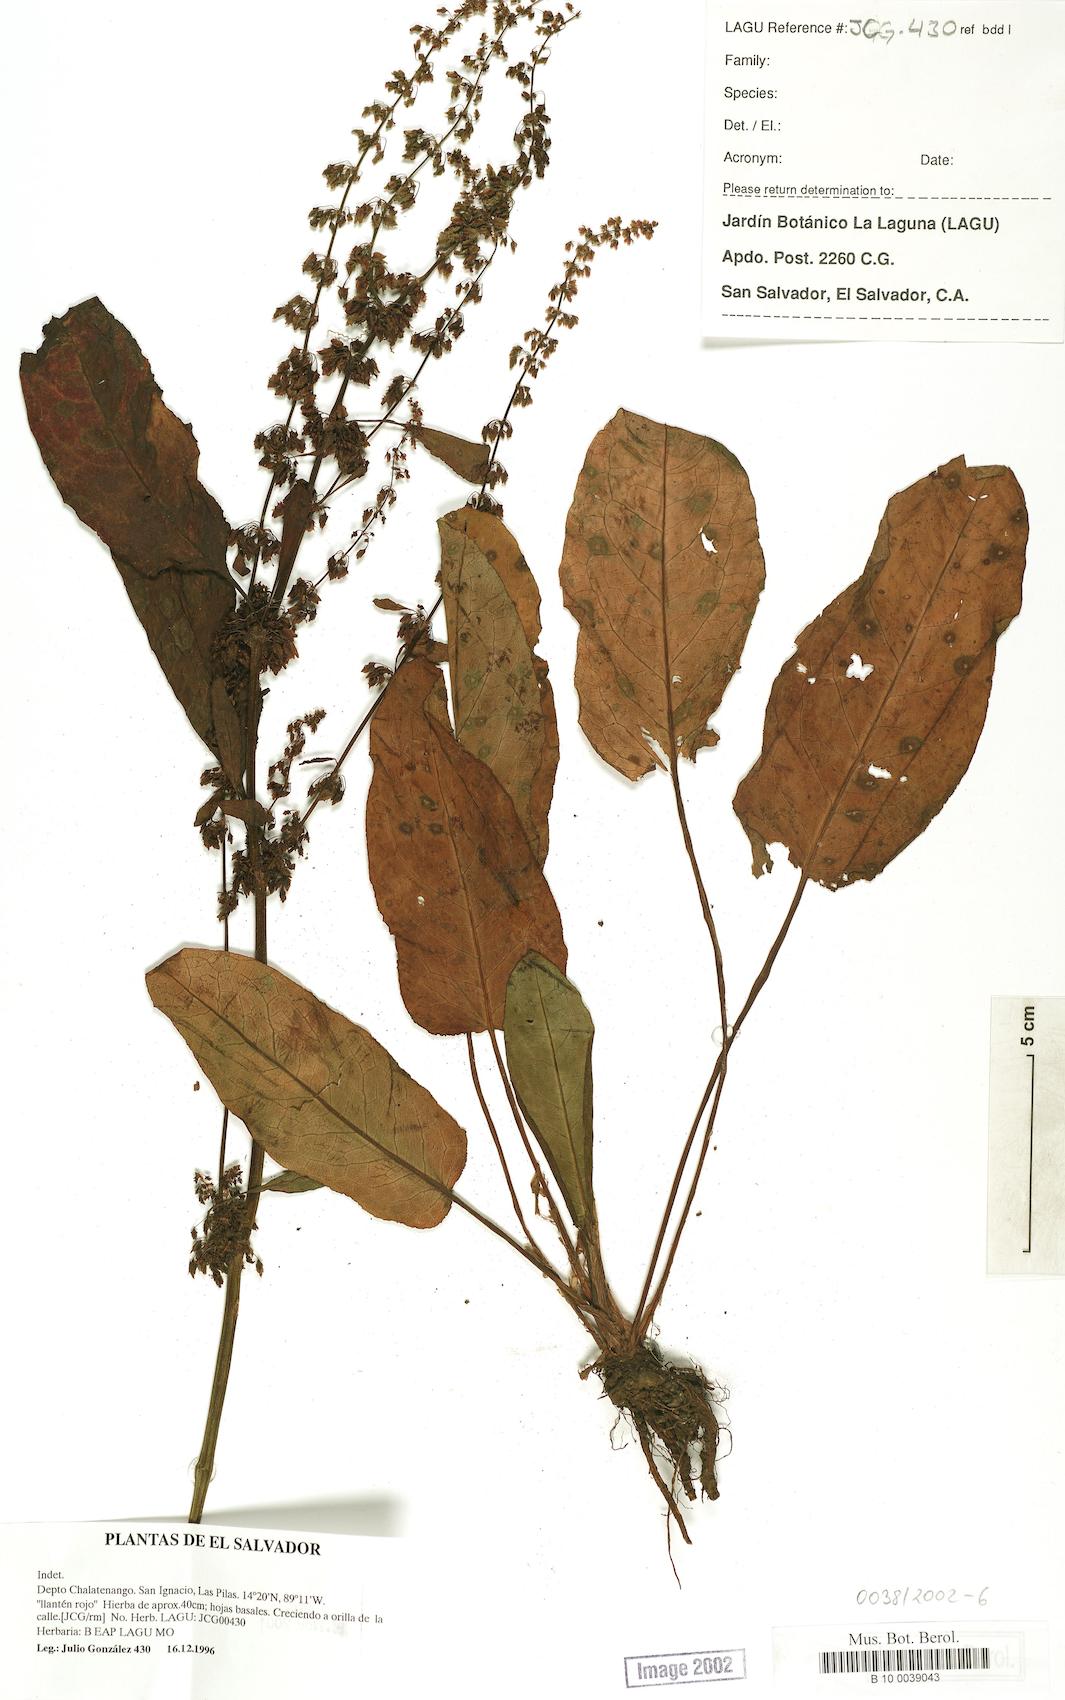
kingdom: Plantae
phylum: Tracheophyta
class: Magnoliopsida
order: Caryophyllales
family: Polygonaceae
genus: Rumex
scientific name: Rumex obtusifolius
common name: Bitter dock
